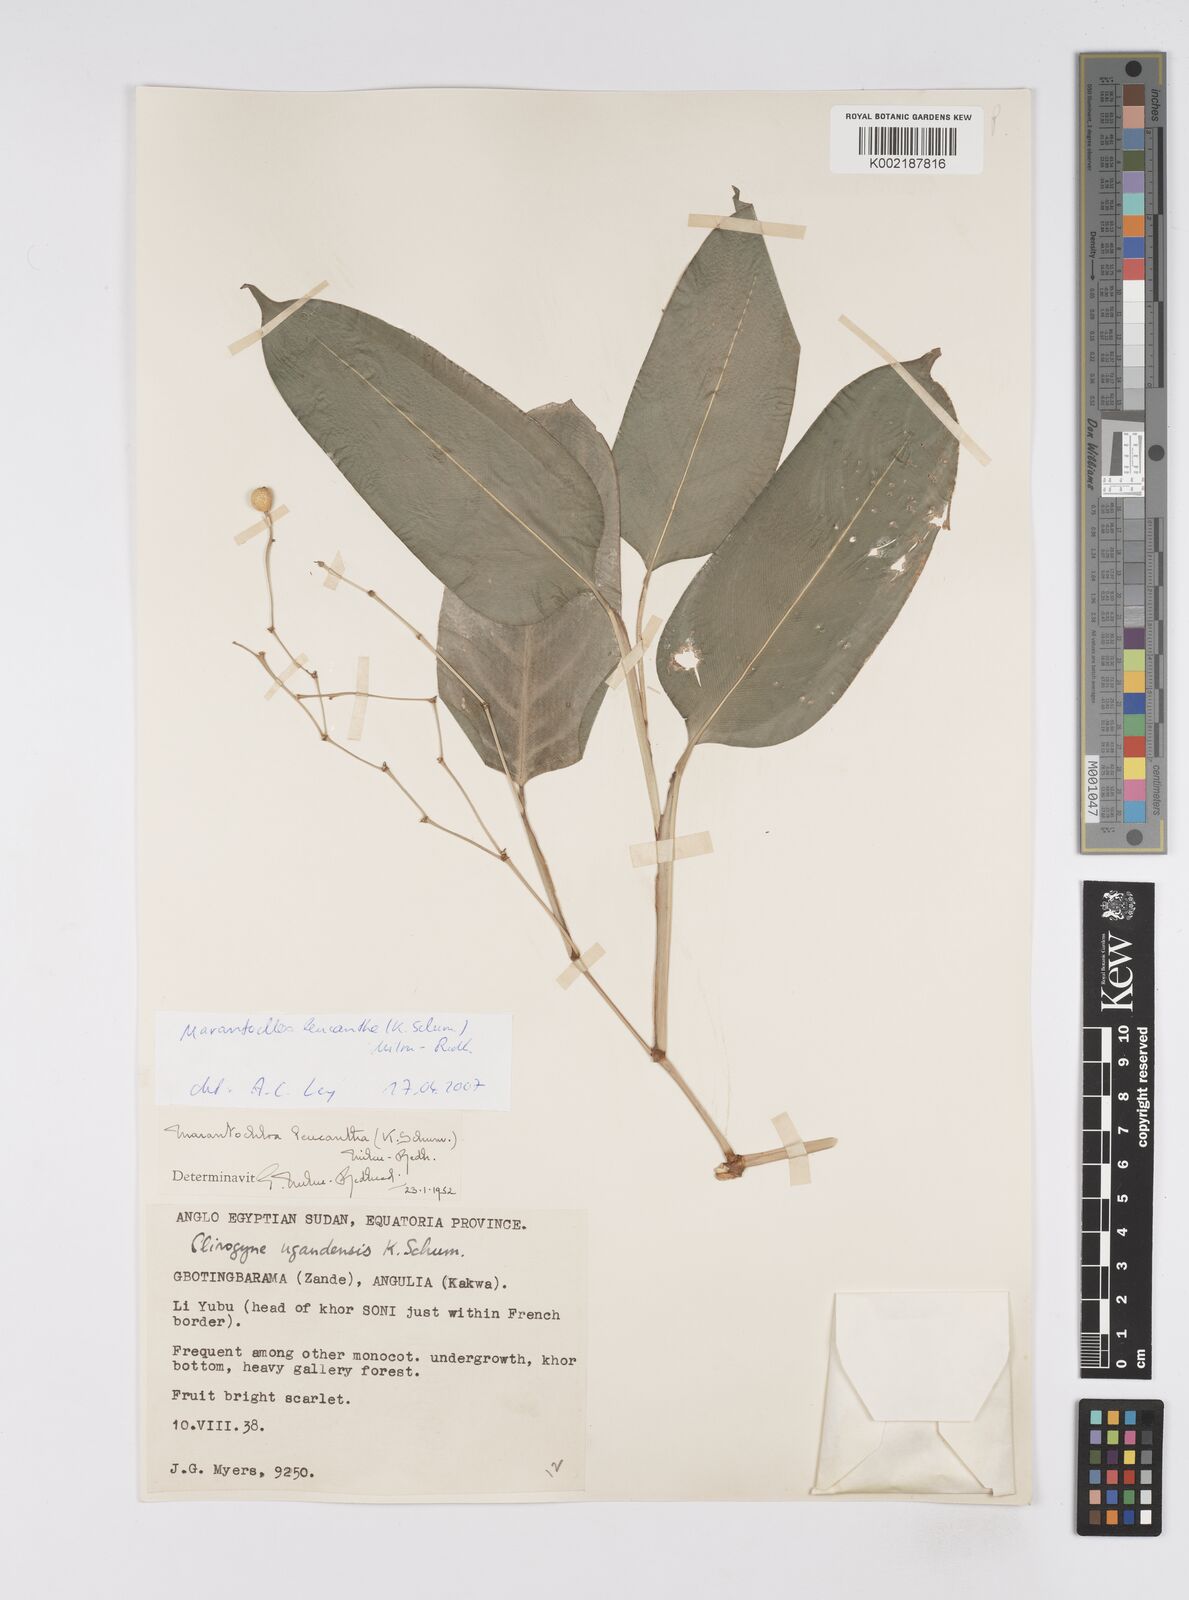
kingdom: Plantae
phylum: Tracheophyta
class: Liliopsida
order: Zingiberales
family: Marantaceae
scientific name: Marantaceae
